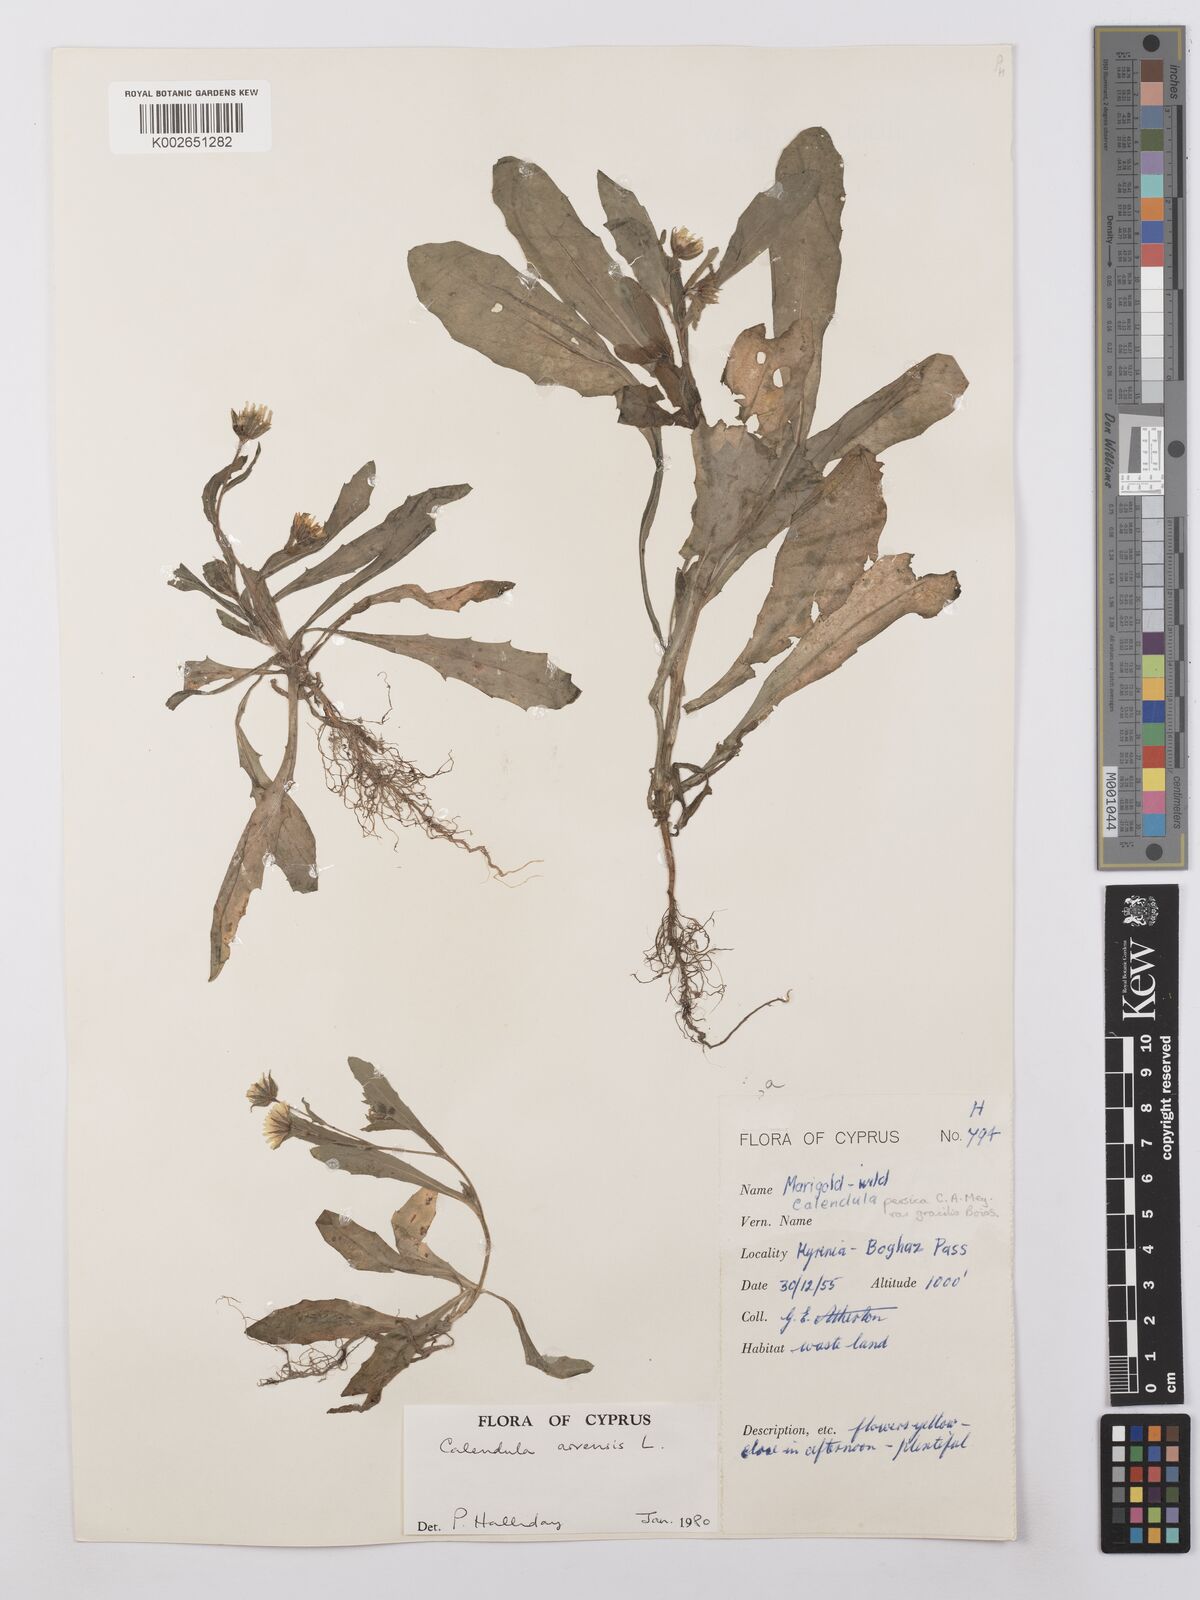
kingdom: Plantae
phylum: Tracheophyta
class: Magnoliopsida
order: Asterales
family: Asteraceae
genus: Calendula
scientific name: Calendula arvensis
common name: Field marigold
